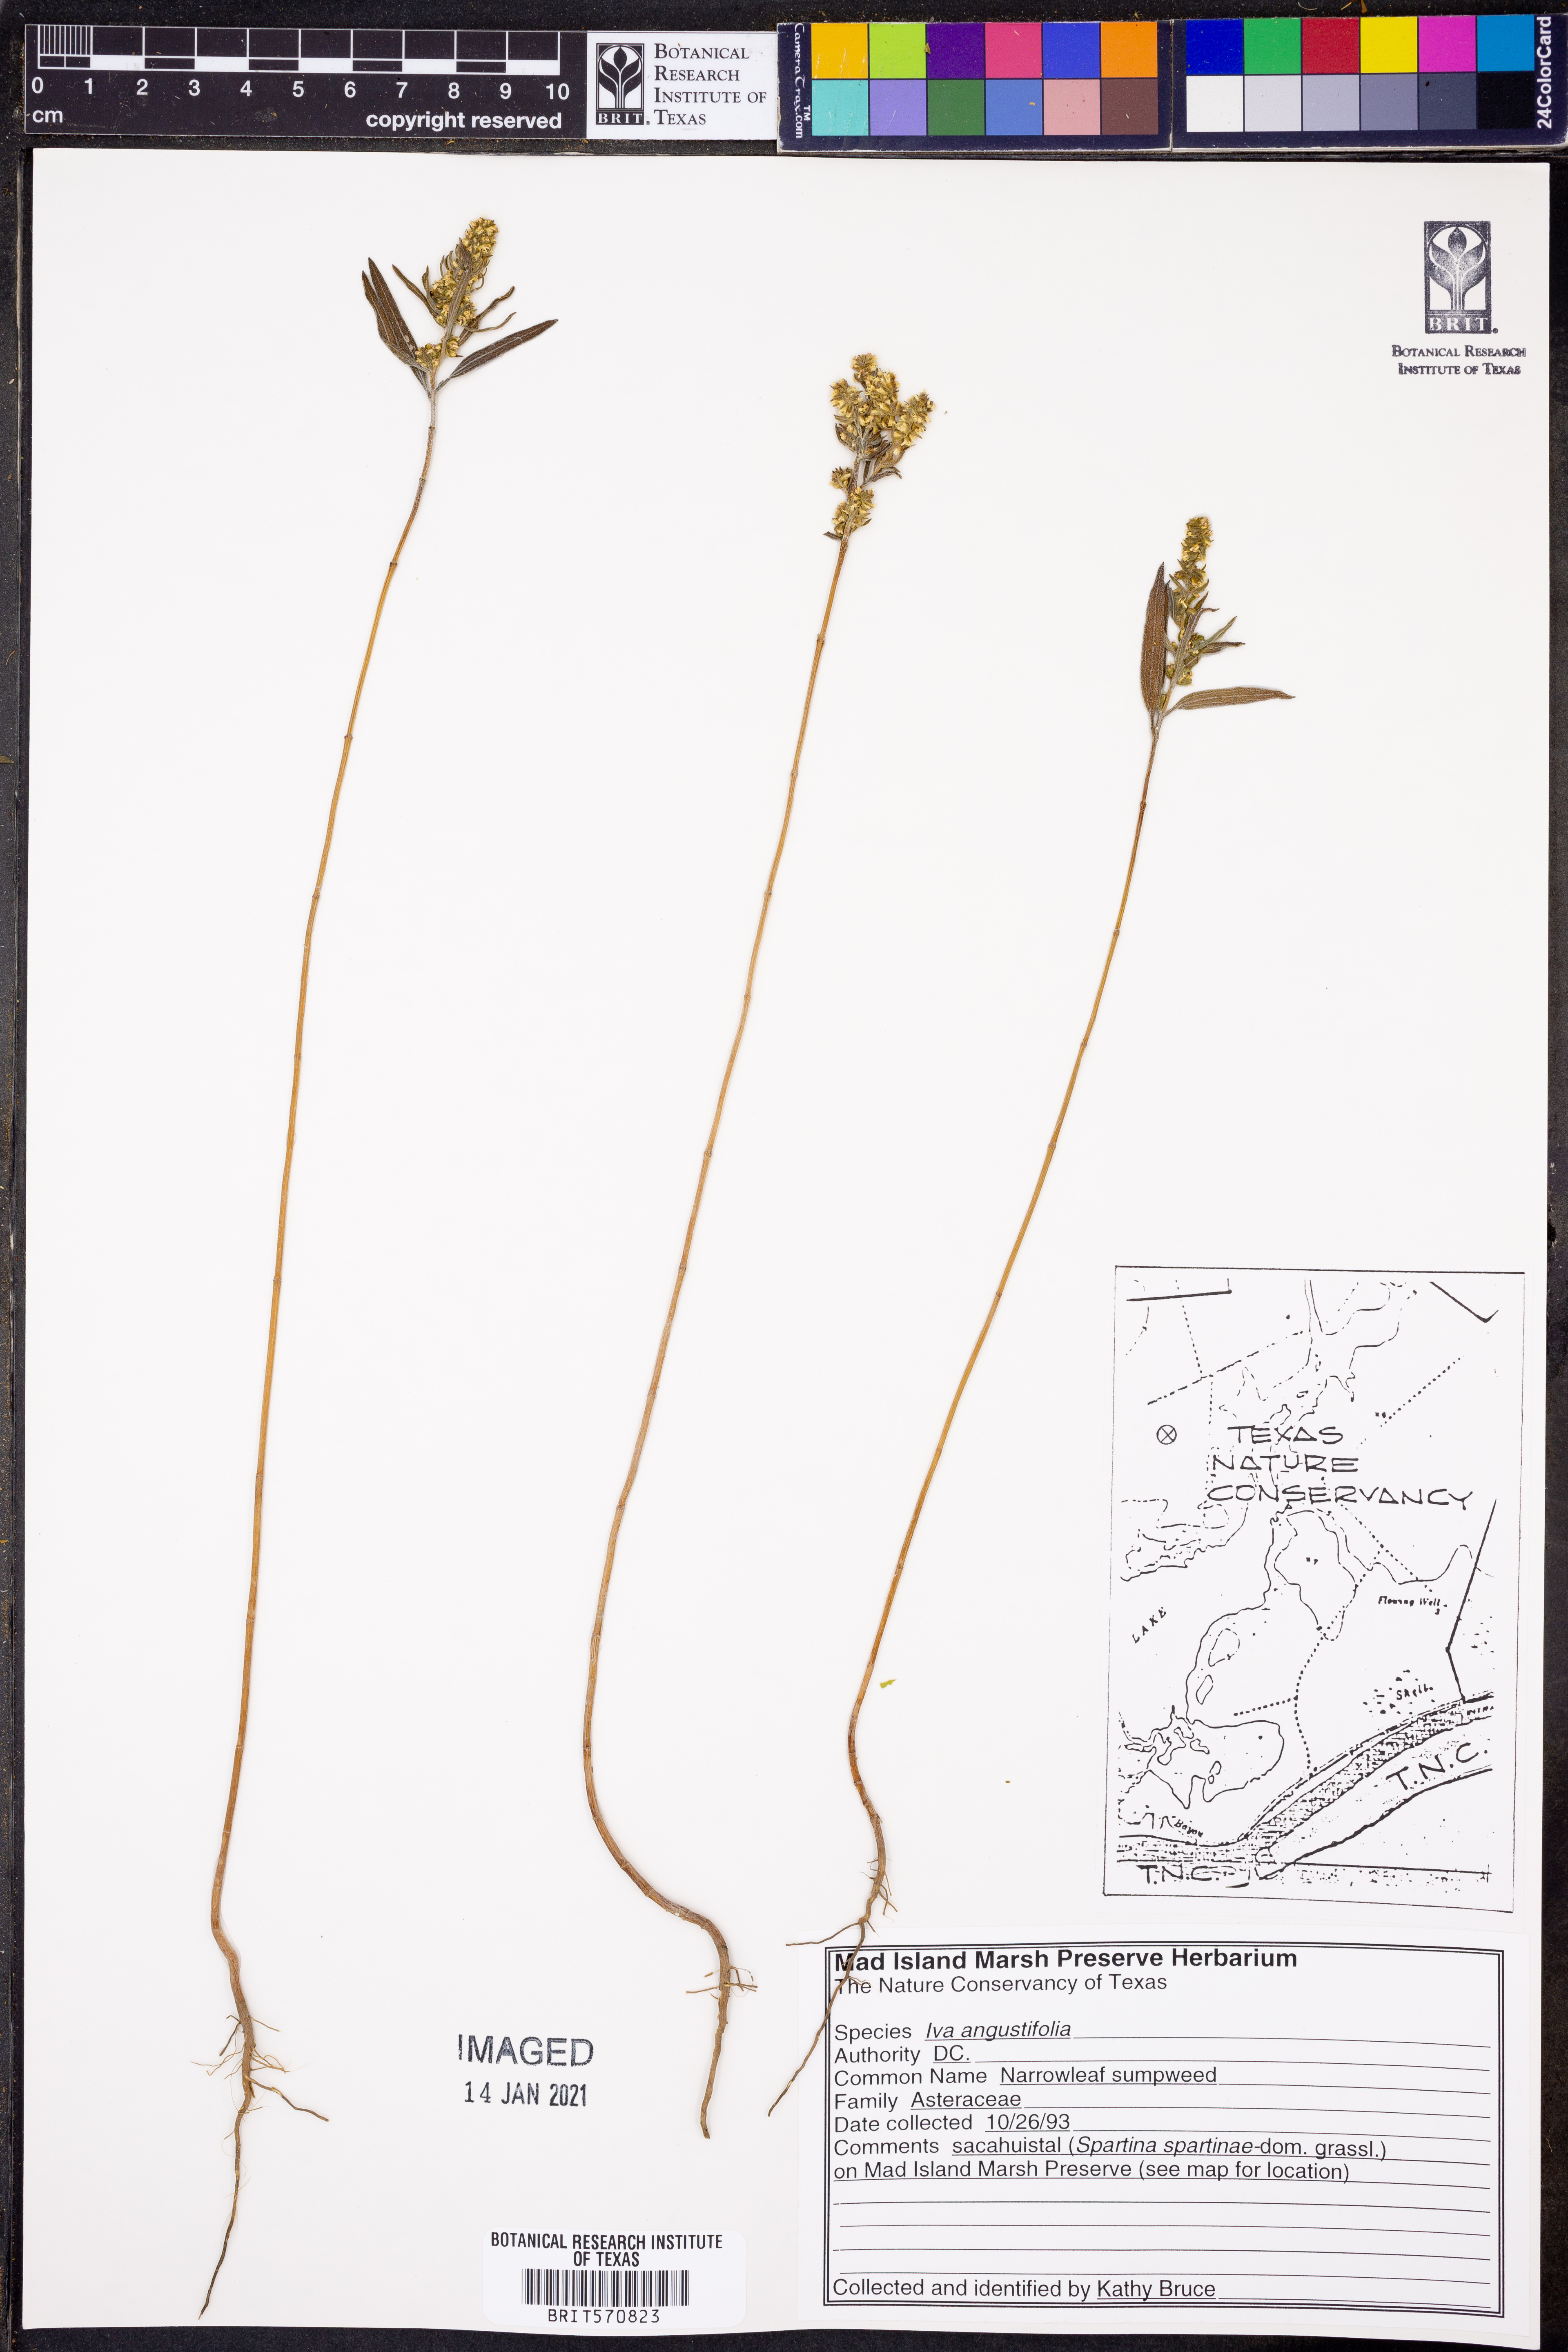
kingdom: Plantae
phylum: Tracheophyta
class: Magnoliopsida
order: Asterales
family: Asteraceae
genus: Iva
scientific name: Iva asperifolia
